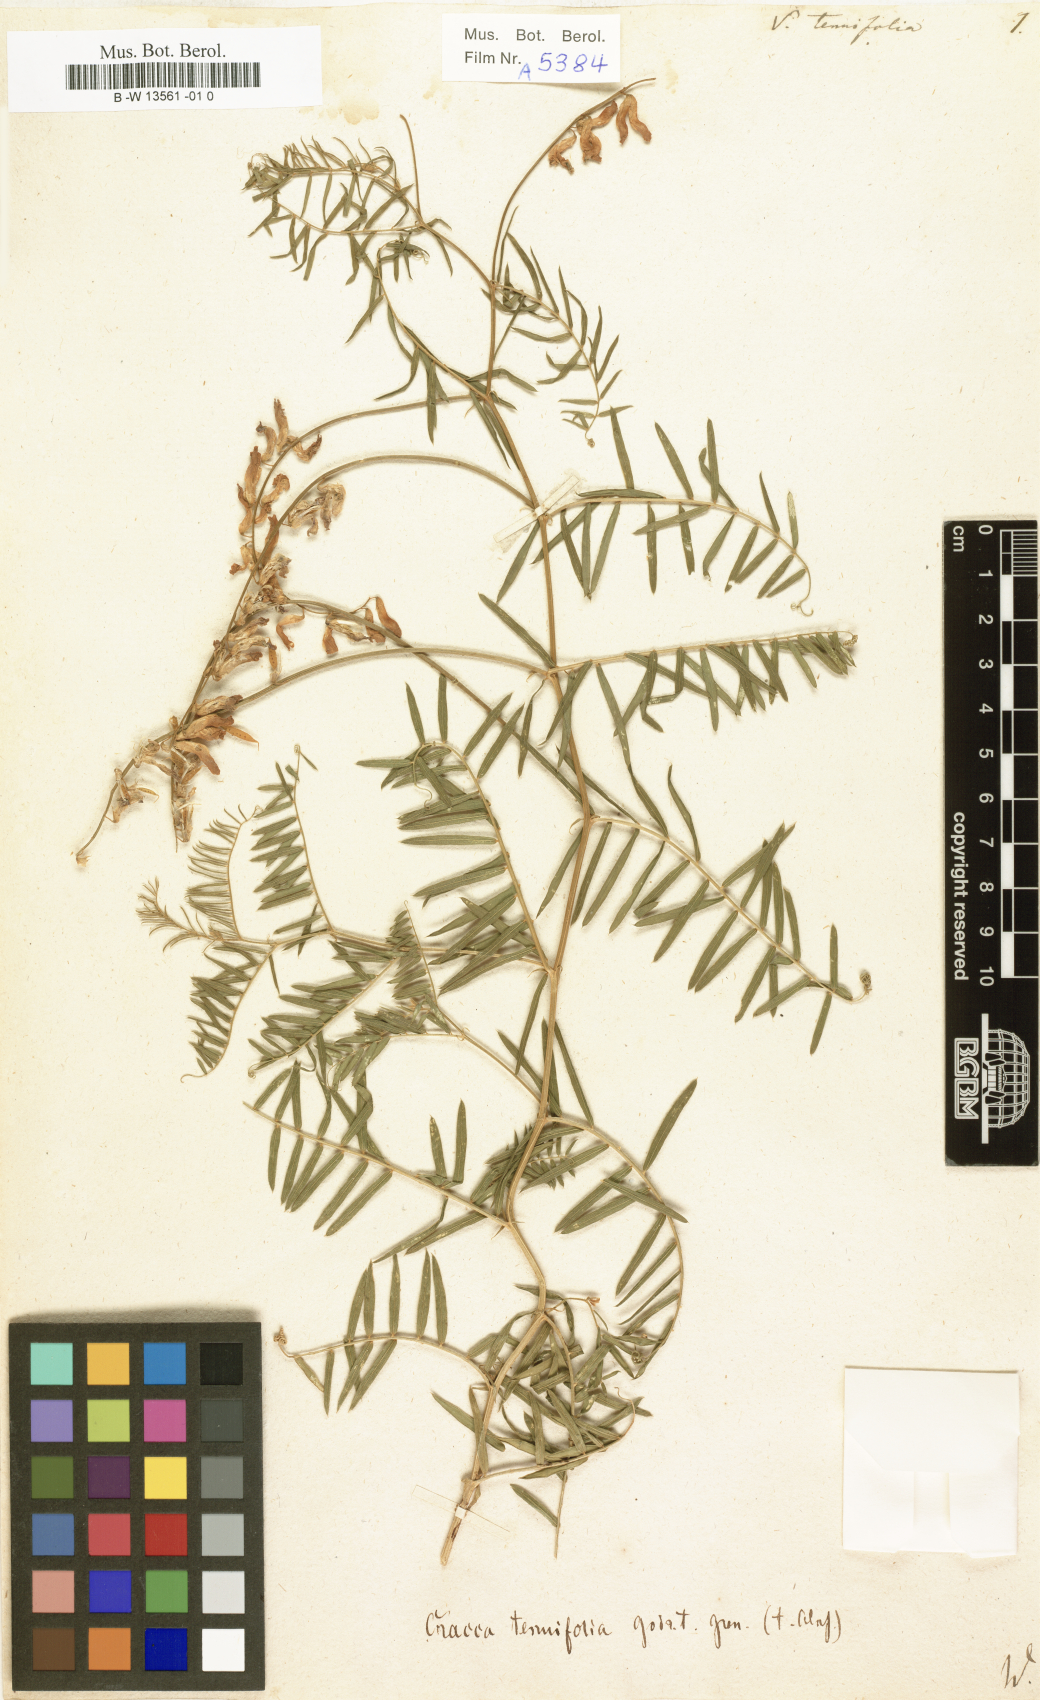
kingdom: Plantae
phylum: Tracheophyta
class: Magnoliopsida
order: Fabales
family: Fabaceae
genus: Vicia
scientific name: Vicia tenuifolia
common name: Fine-leaved vetch
